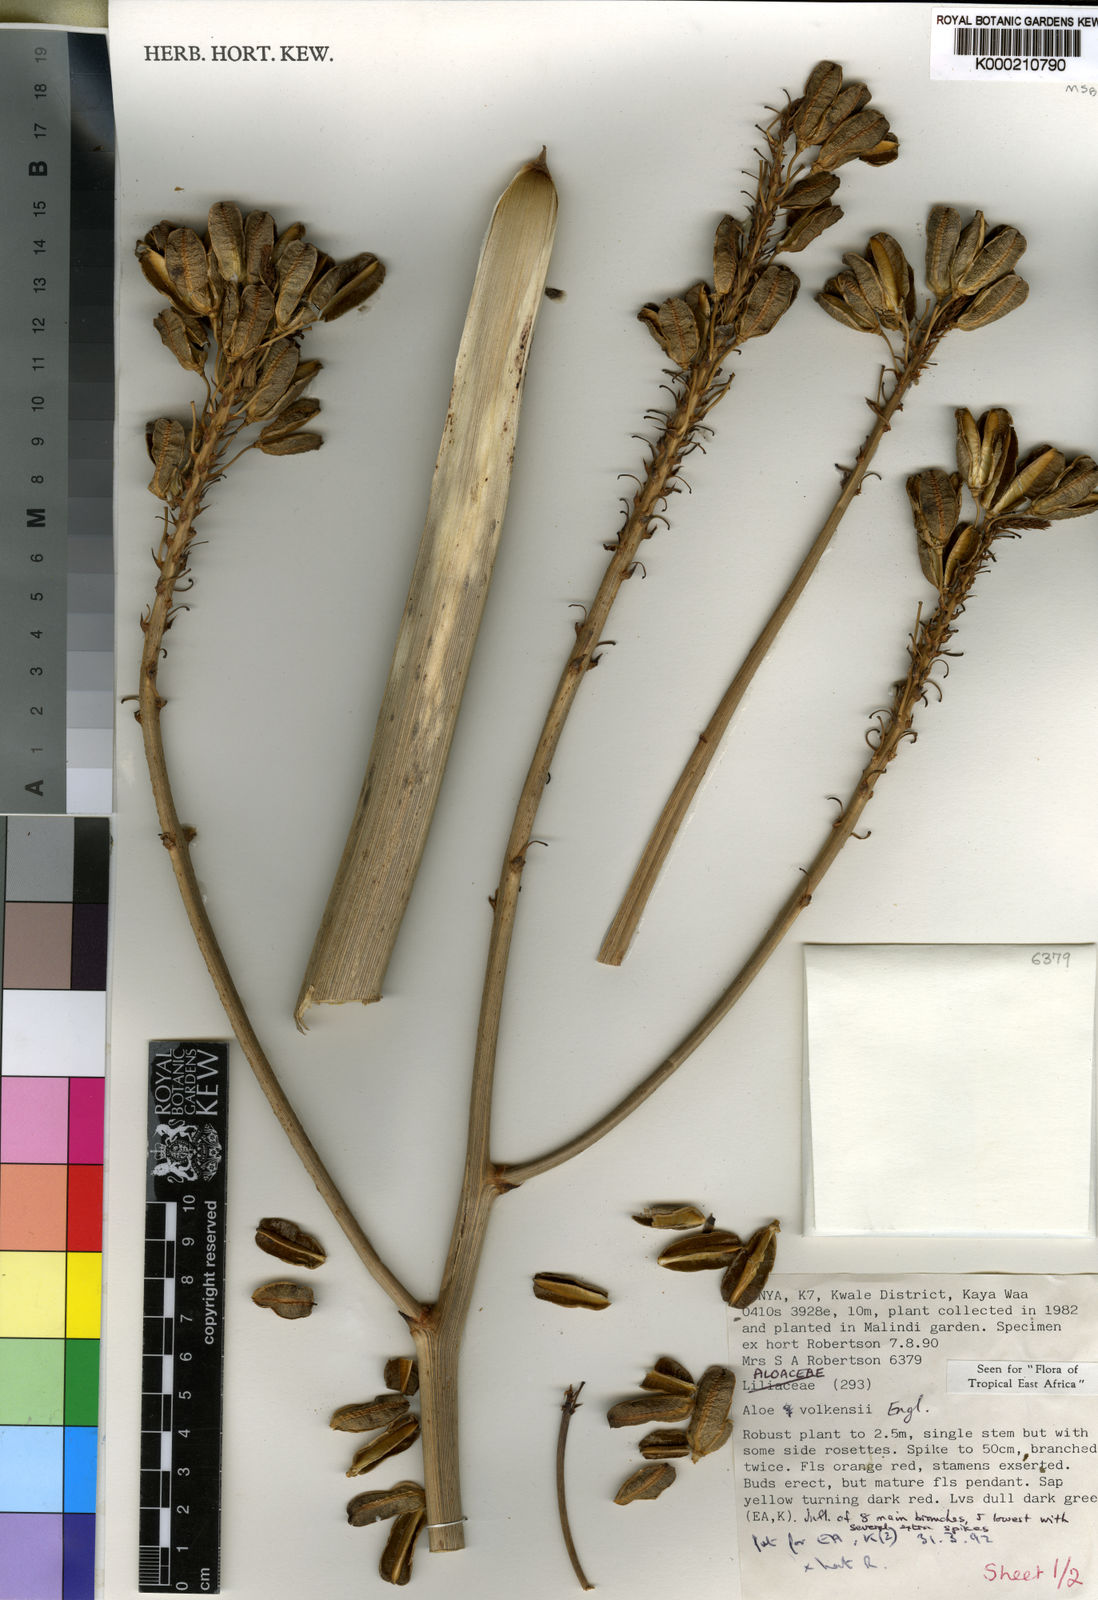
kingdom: Plantae
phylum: Tracheophyta
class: Liliopsida
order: Asparagales
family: Asphodelaceae
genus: Aloe
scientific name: Aloe volkensii
